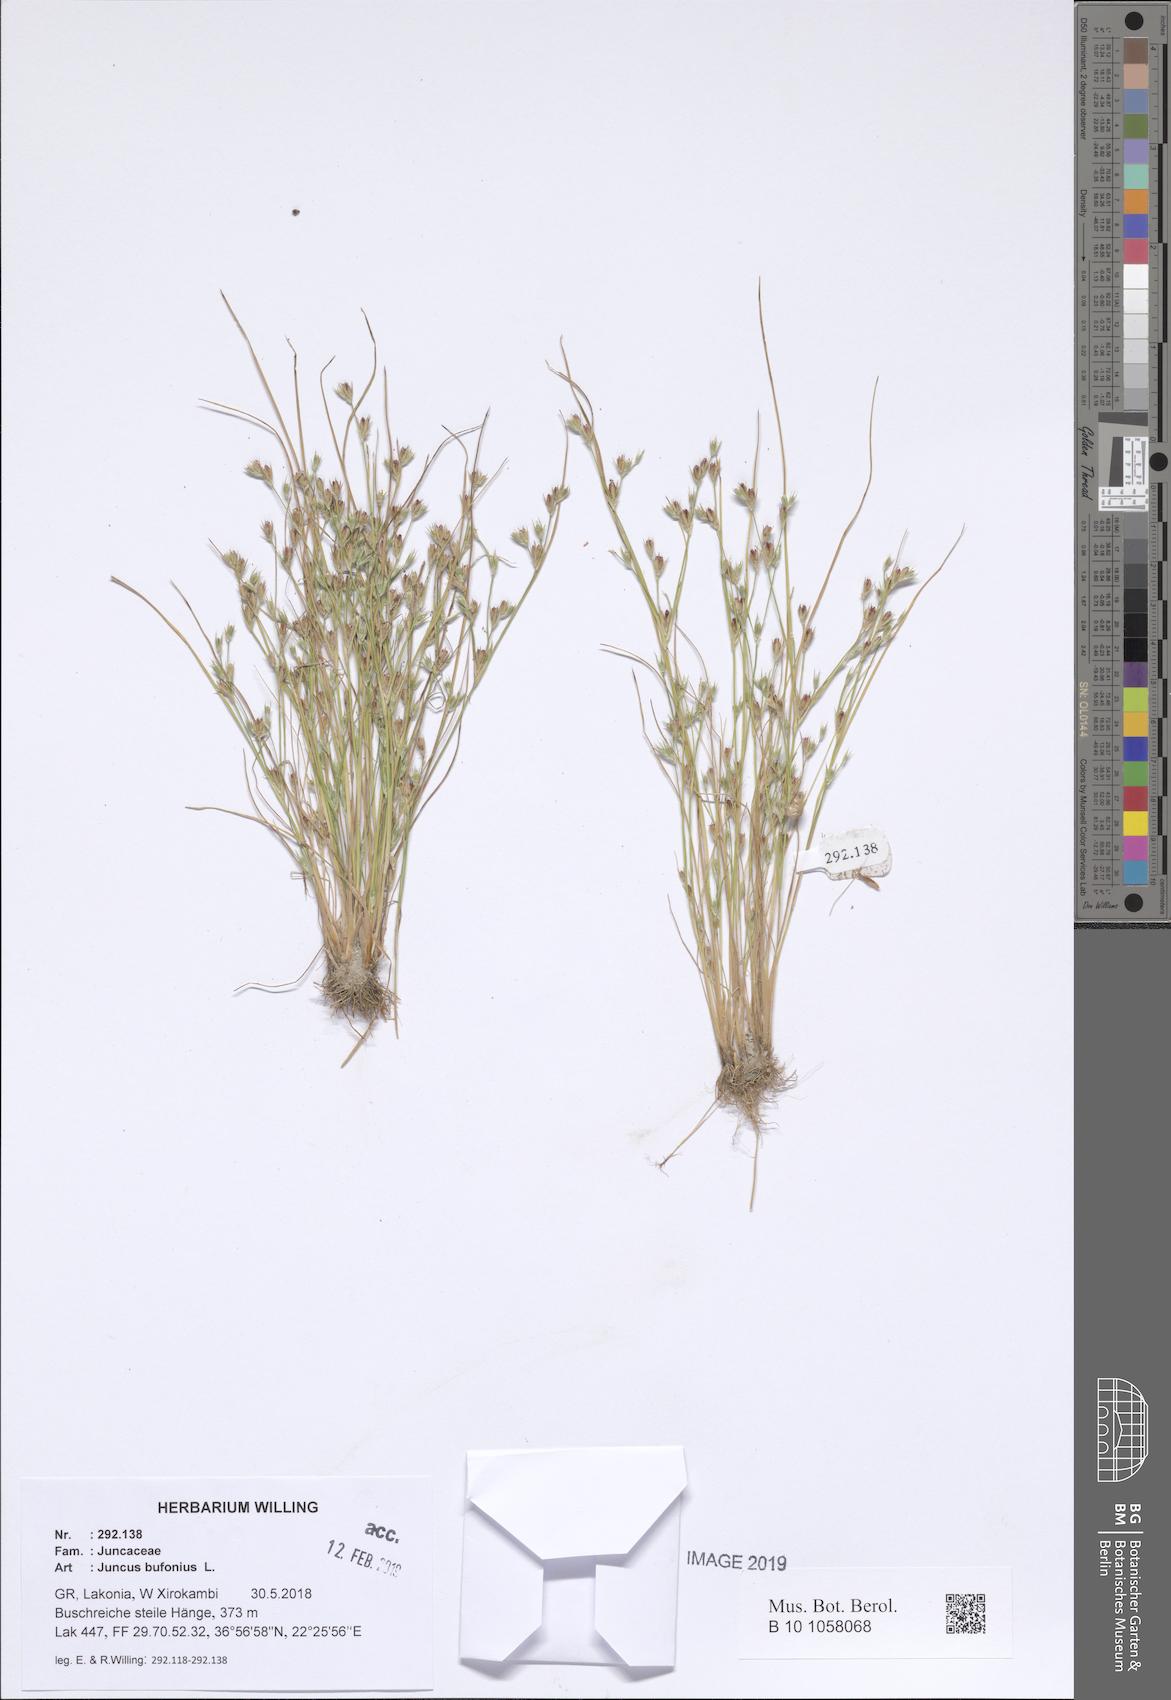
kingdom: Plantae
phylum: Tracheophyta
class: Liliopsida
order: Poales
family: Juncaceae
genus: Juncus
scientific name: Juncus bufonius
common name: Toad rush
